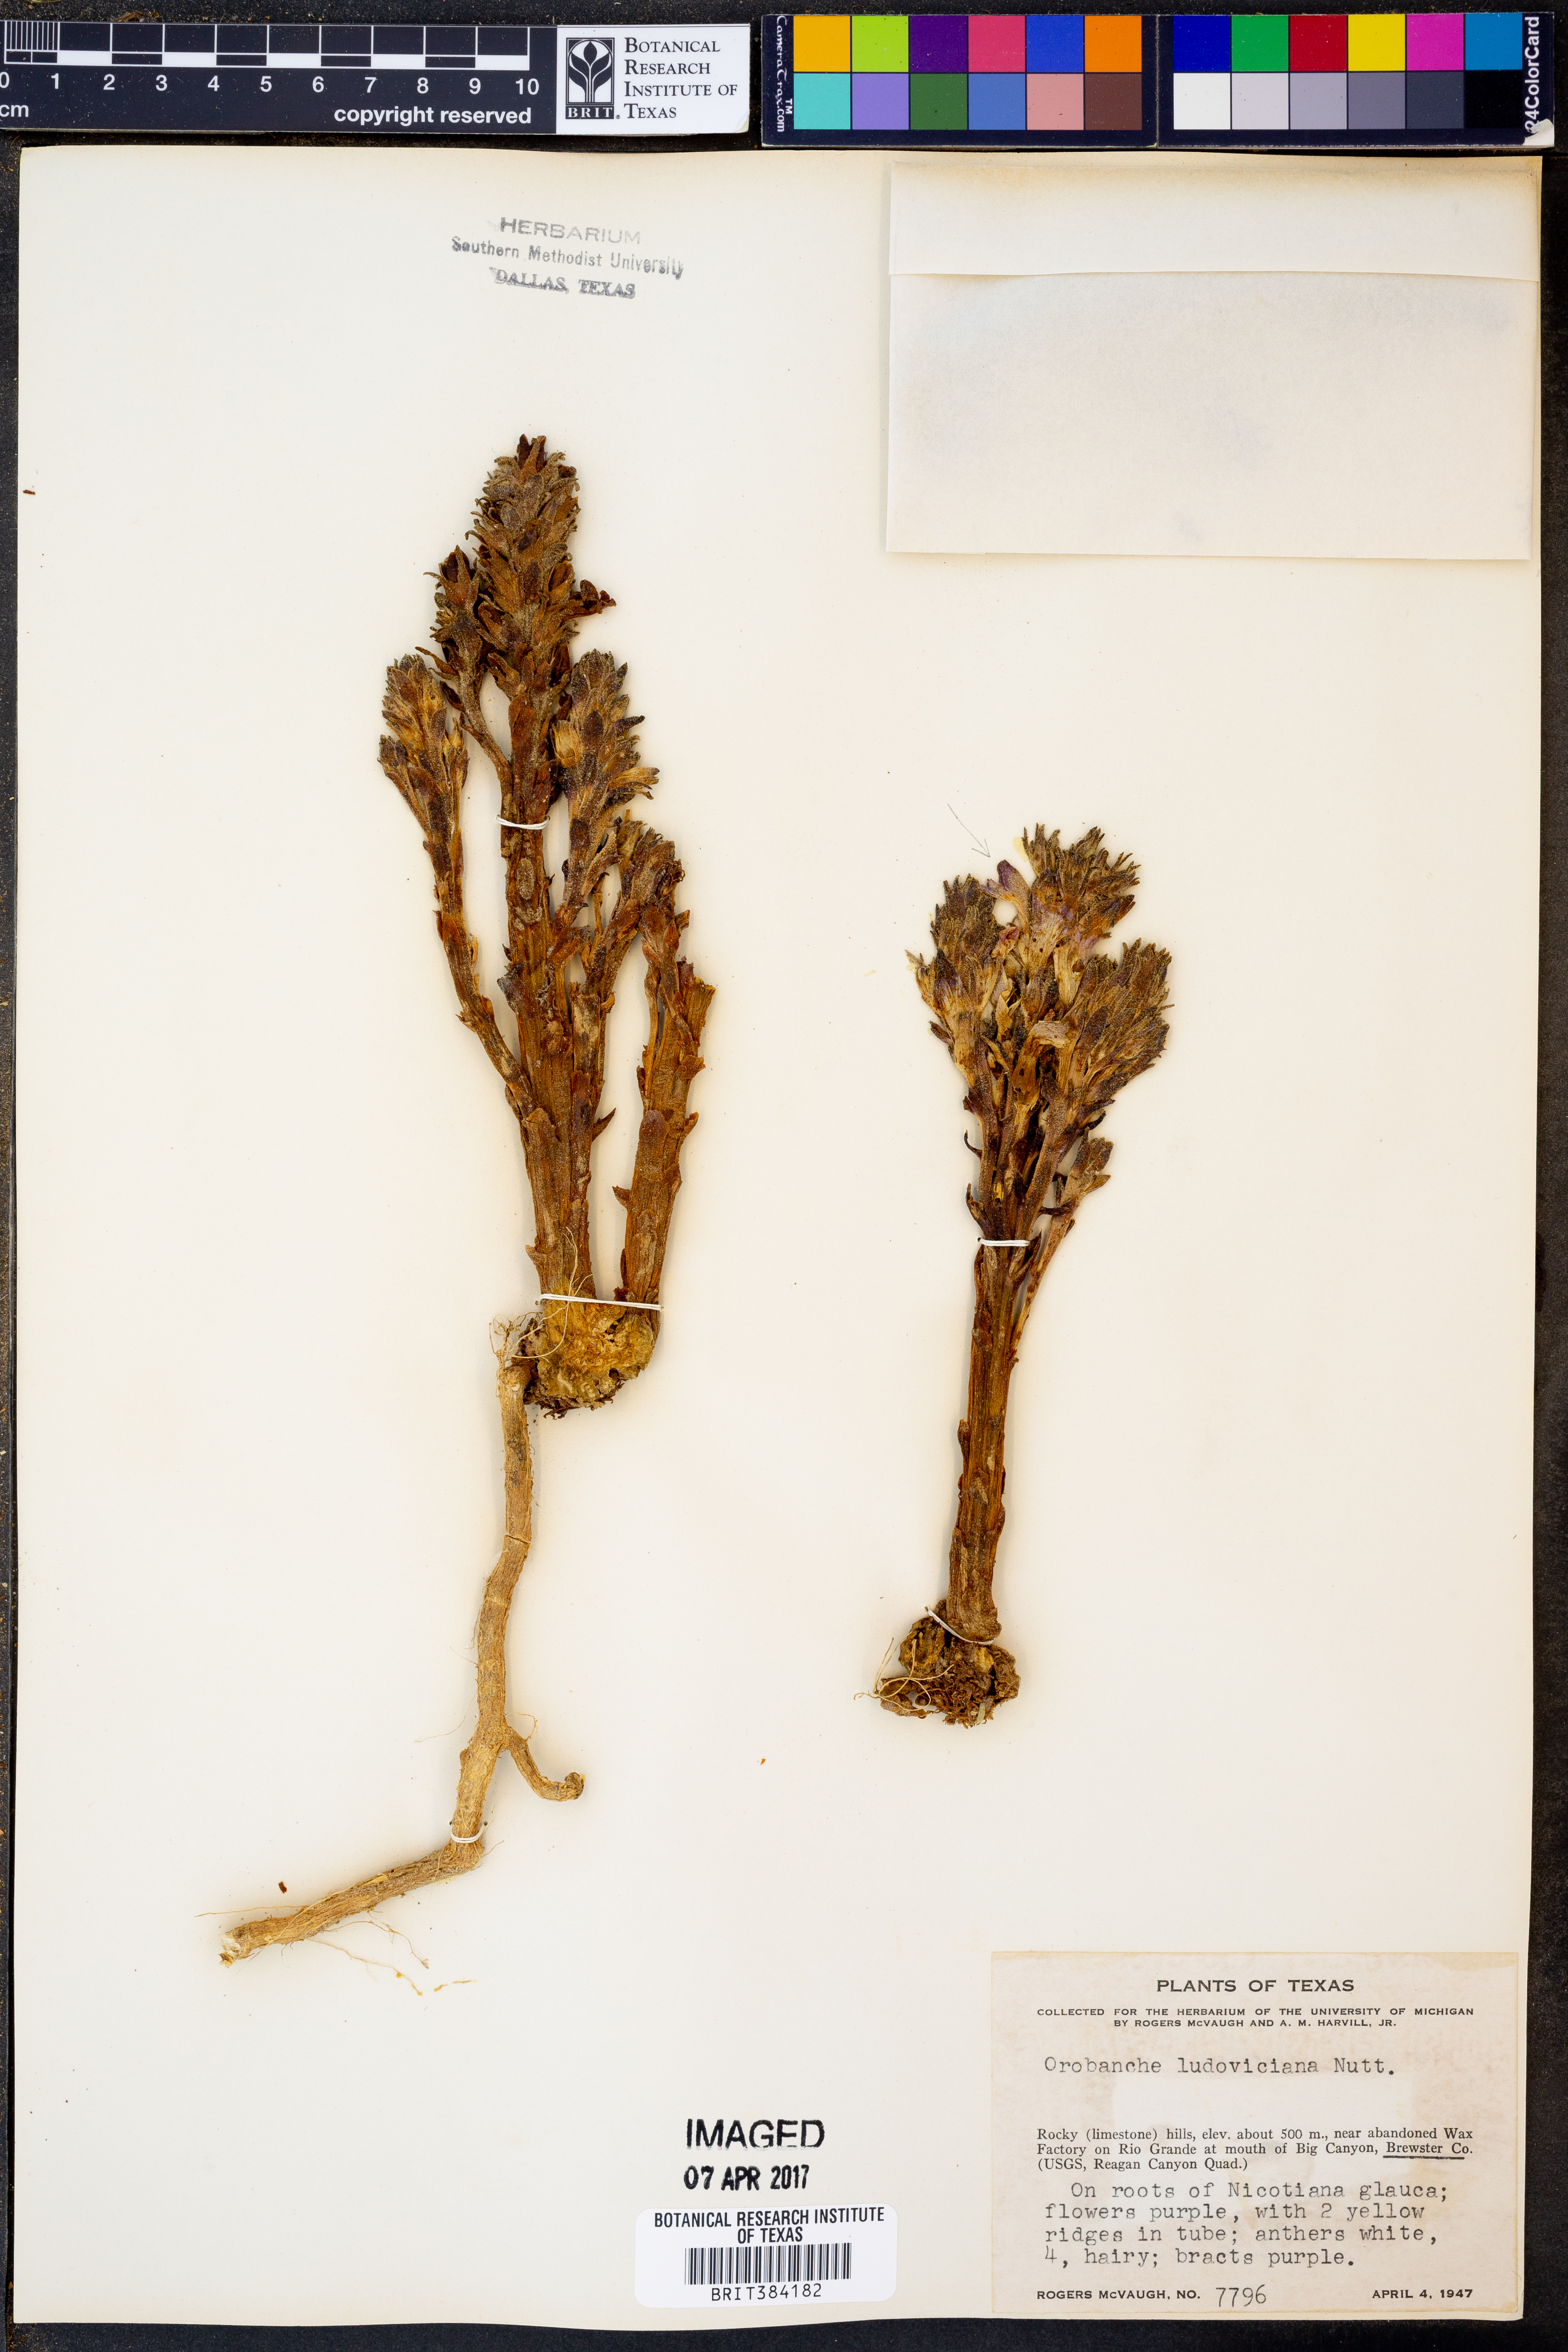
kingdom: Plantae
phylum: Tracheophyta
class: Magnoliopsida
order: Lamiales
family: Orobanchaceae
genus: Aphyllon
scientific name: Aphyllon ludovicianum
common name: Louisiana broomrape
